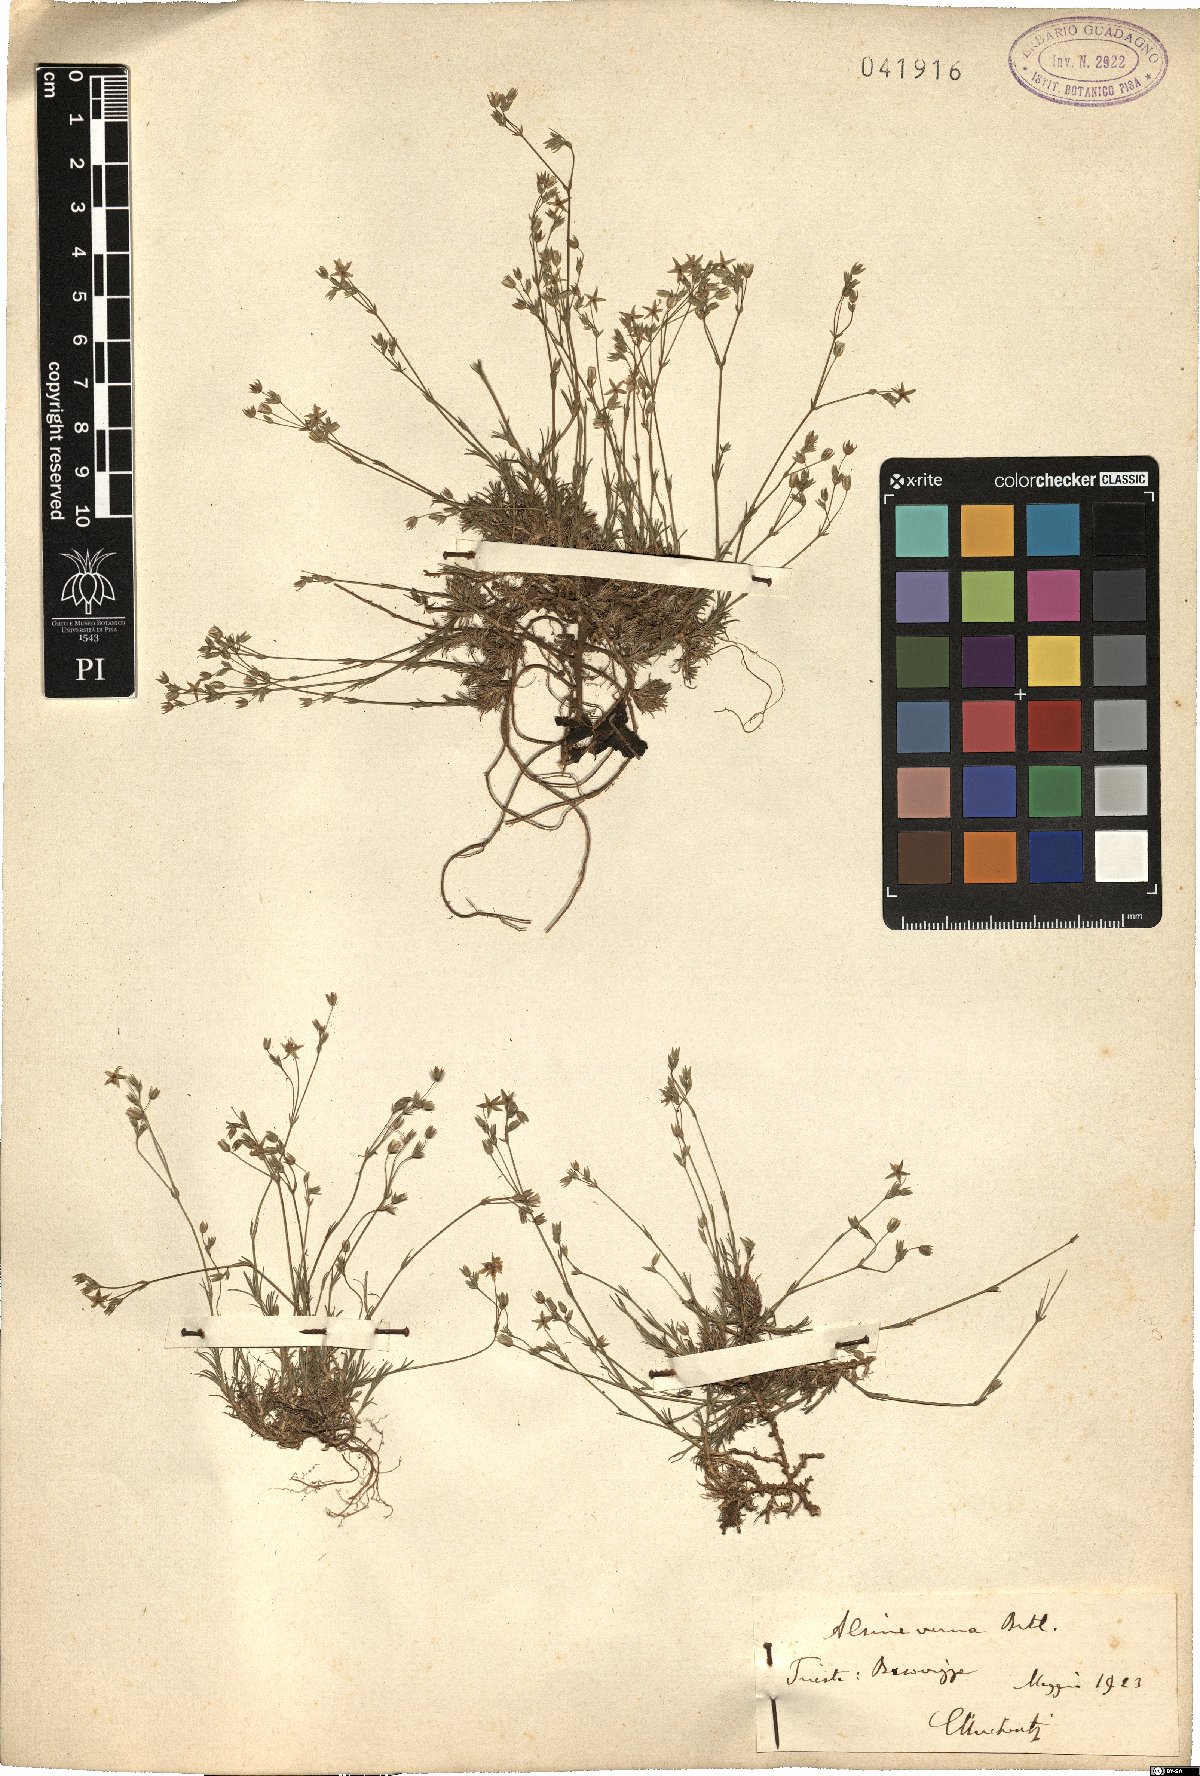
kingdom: Plantae
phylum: Tracheophyta
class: Magnoliopsida
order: Caryophyllales
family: Caryophyllaceae
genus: Sabulina
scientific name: Sabulina verna
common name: Spring sandwort
